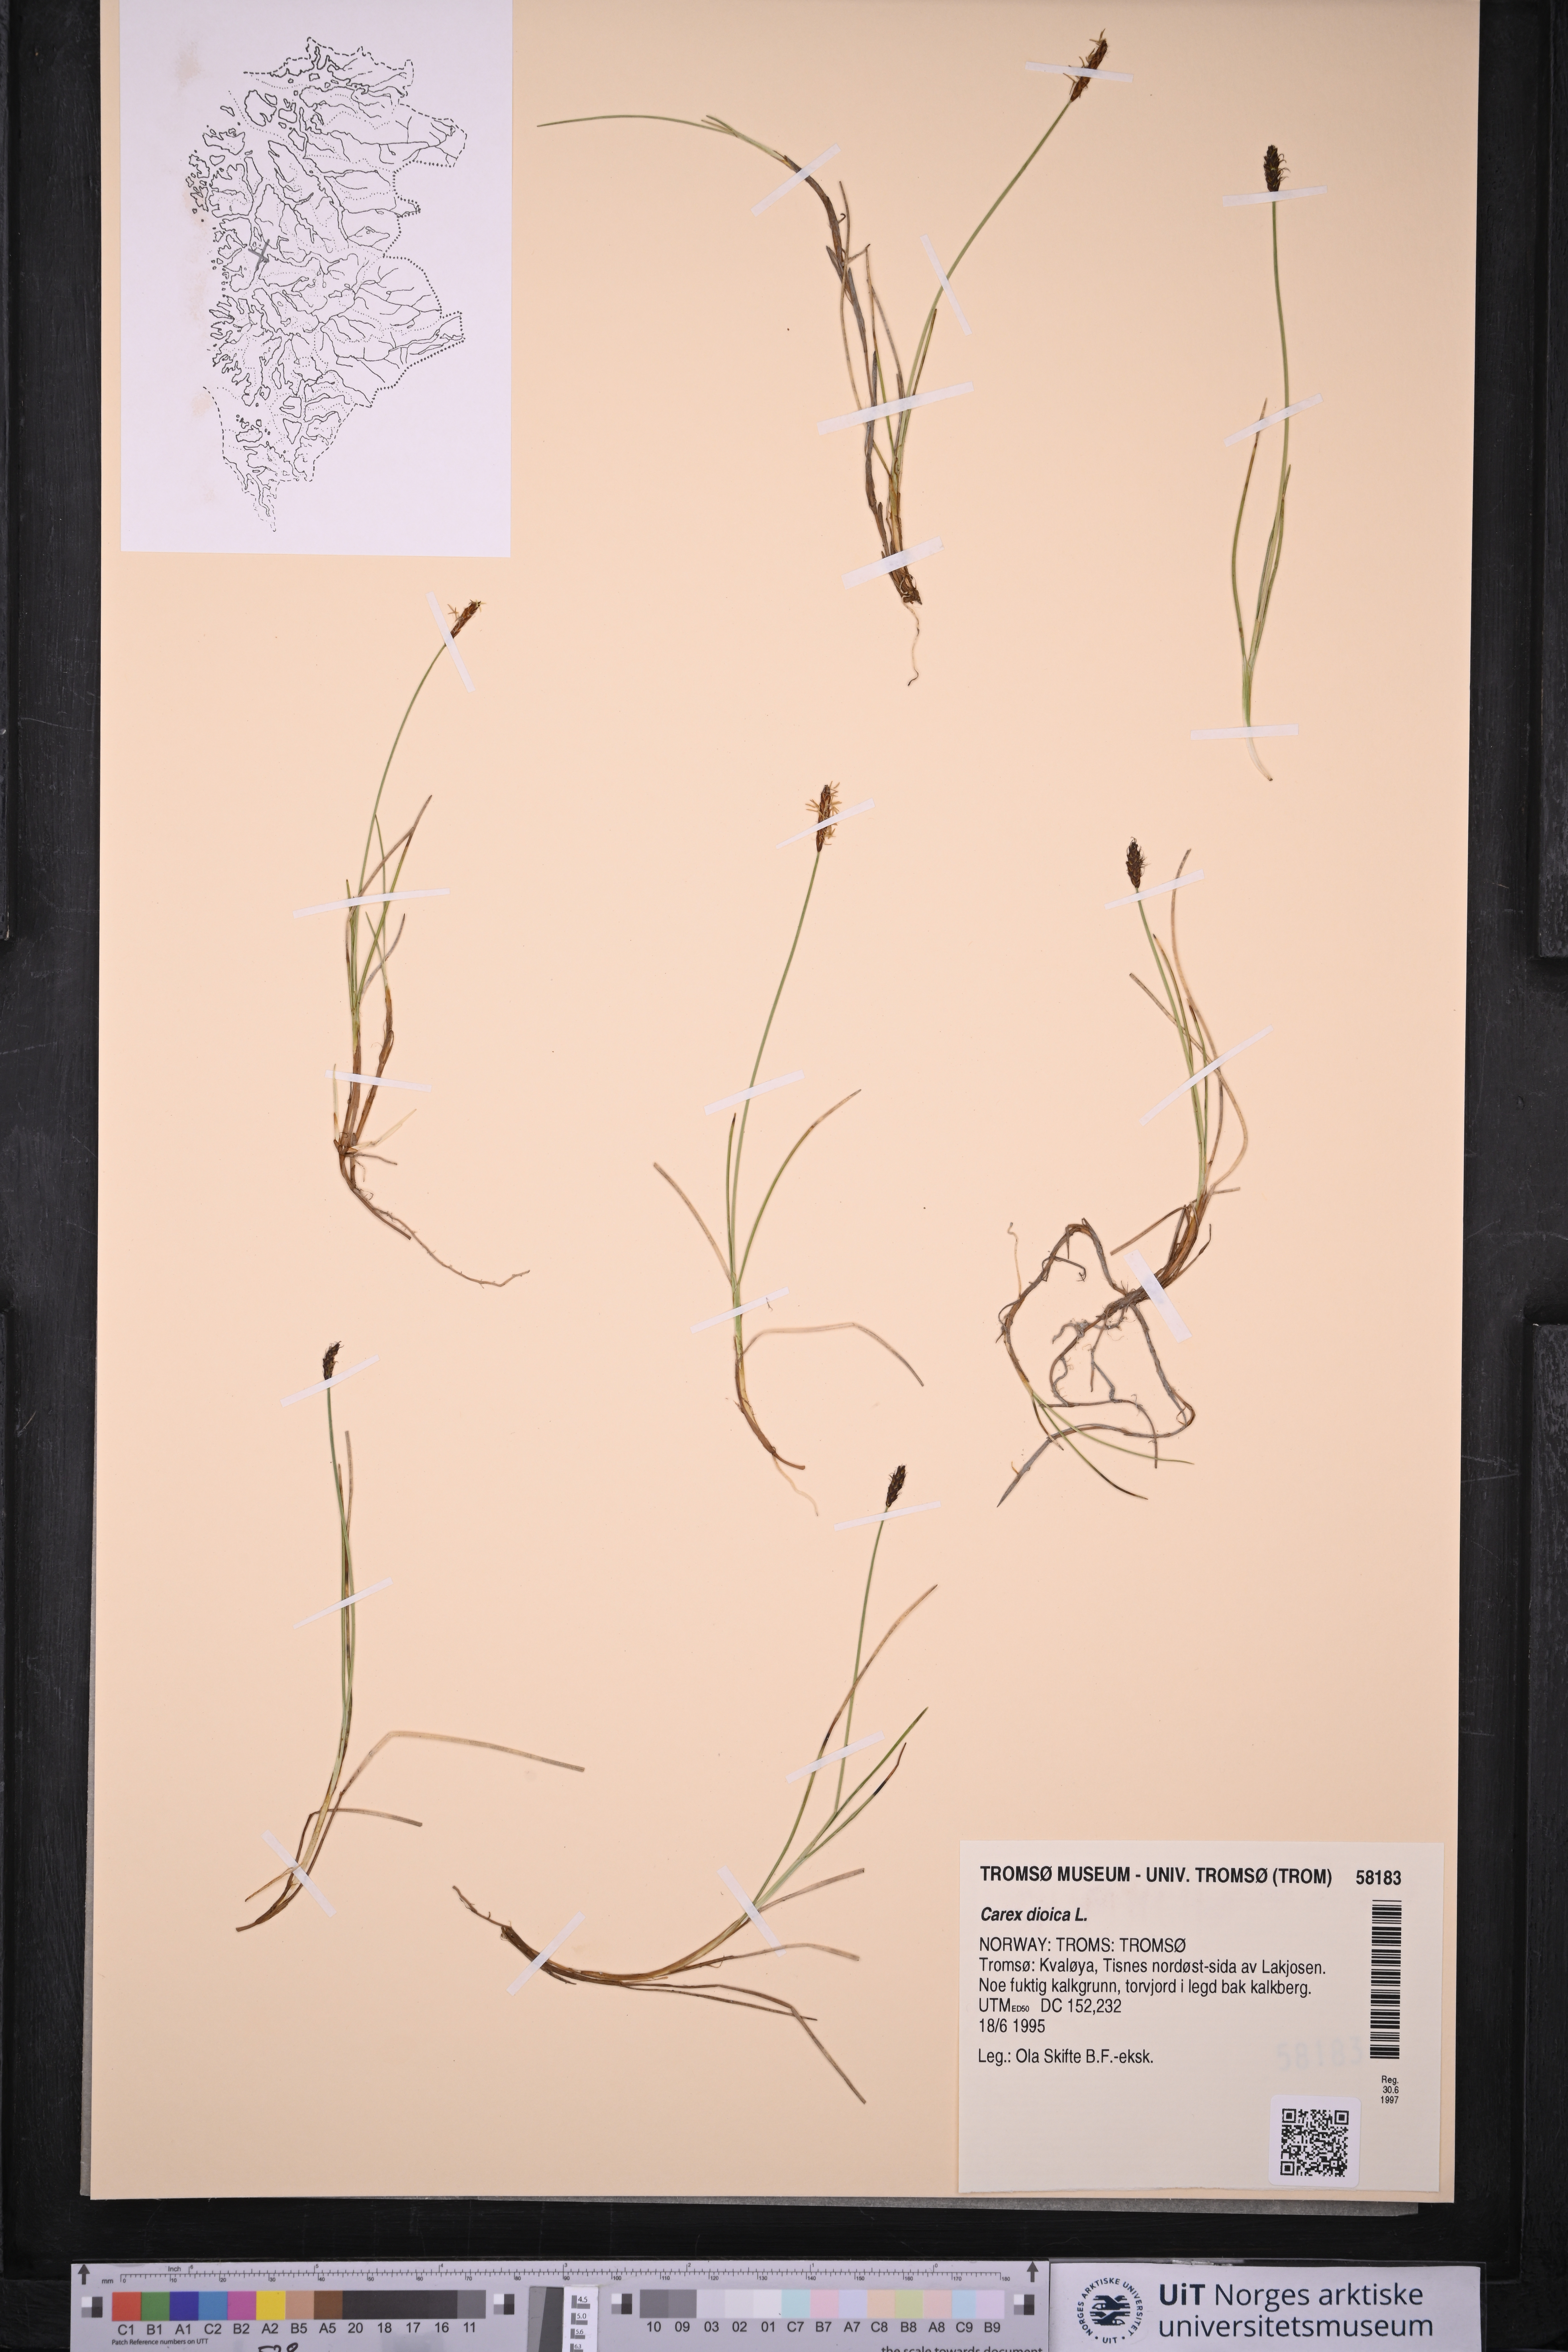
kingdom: Plantae
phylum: Tracheophyta
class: Liliopsida
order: Poales
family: Cyperaceae
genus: Carex
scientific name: Carex dioica
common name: Dioecious sedge
